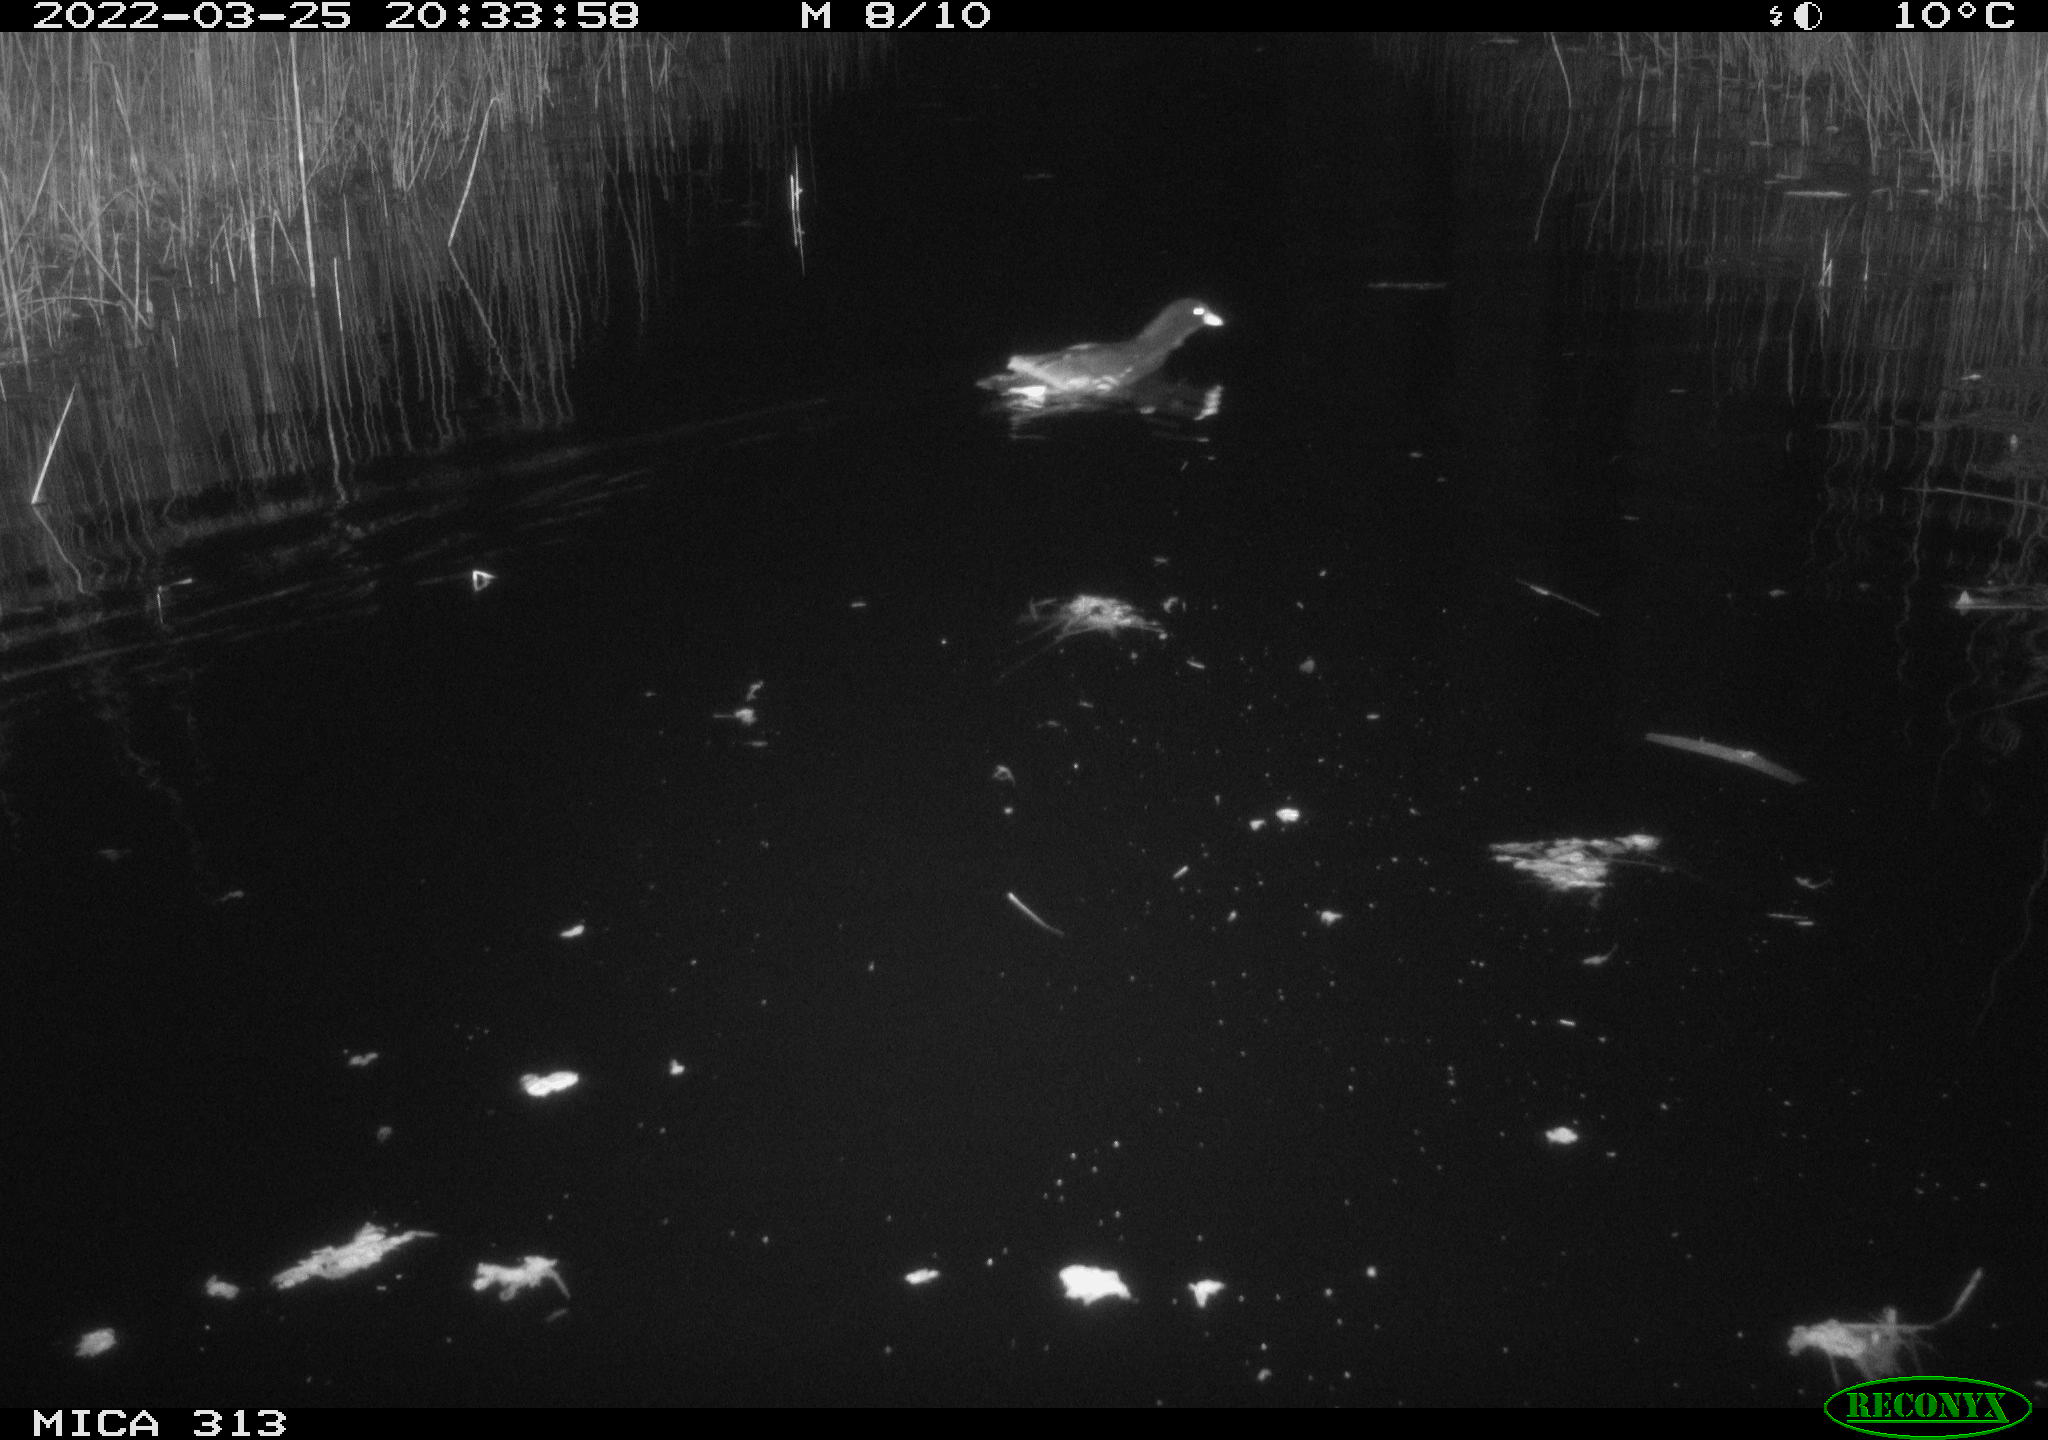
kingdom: Animalia
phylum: Chordata
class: Aves
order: Gruiformes
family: Rallidae
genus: Gallinula
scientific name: Gallinula chloropus
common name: Common moorhen
